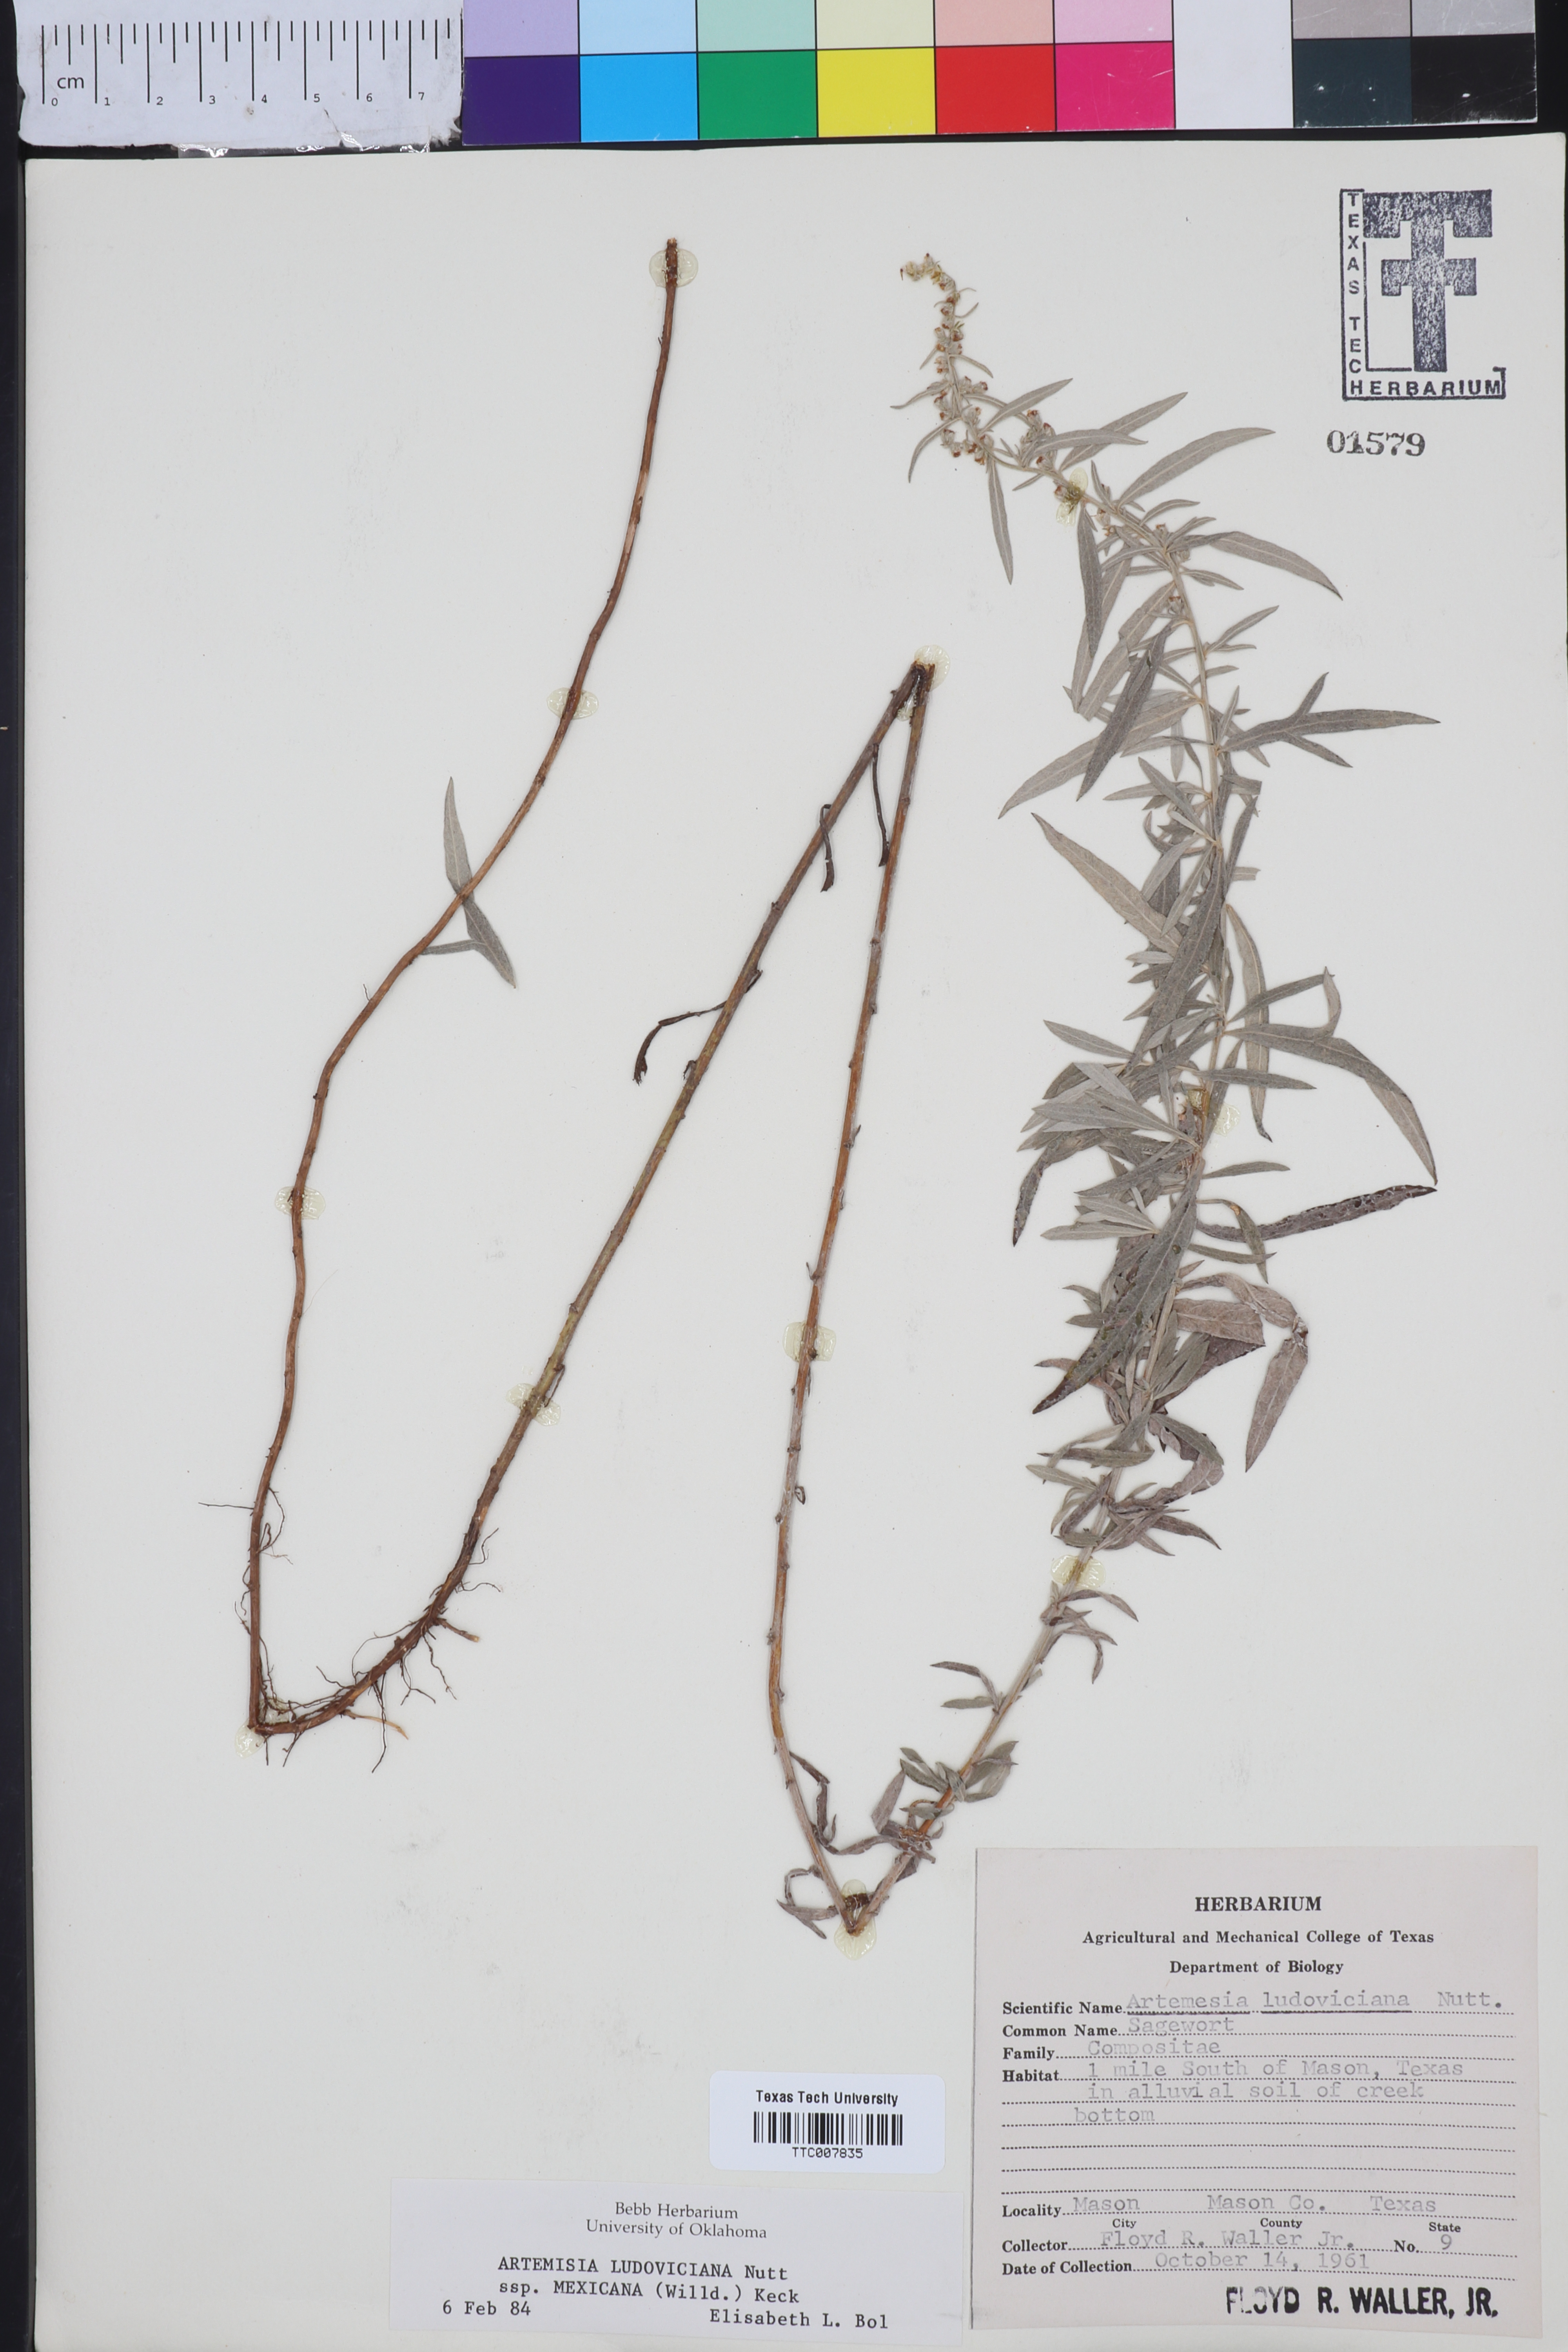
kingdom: Plantae
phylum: Tracheophyta
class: Magnoliopsida
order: Asterales
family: Asteraceae
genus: Artemisia
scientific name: Artemisia ludoviciana
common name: Western mugwort
